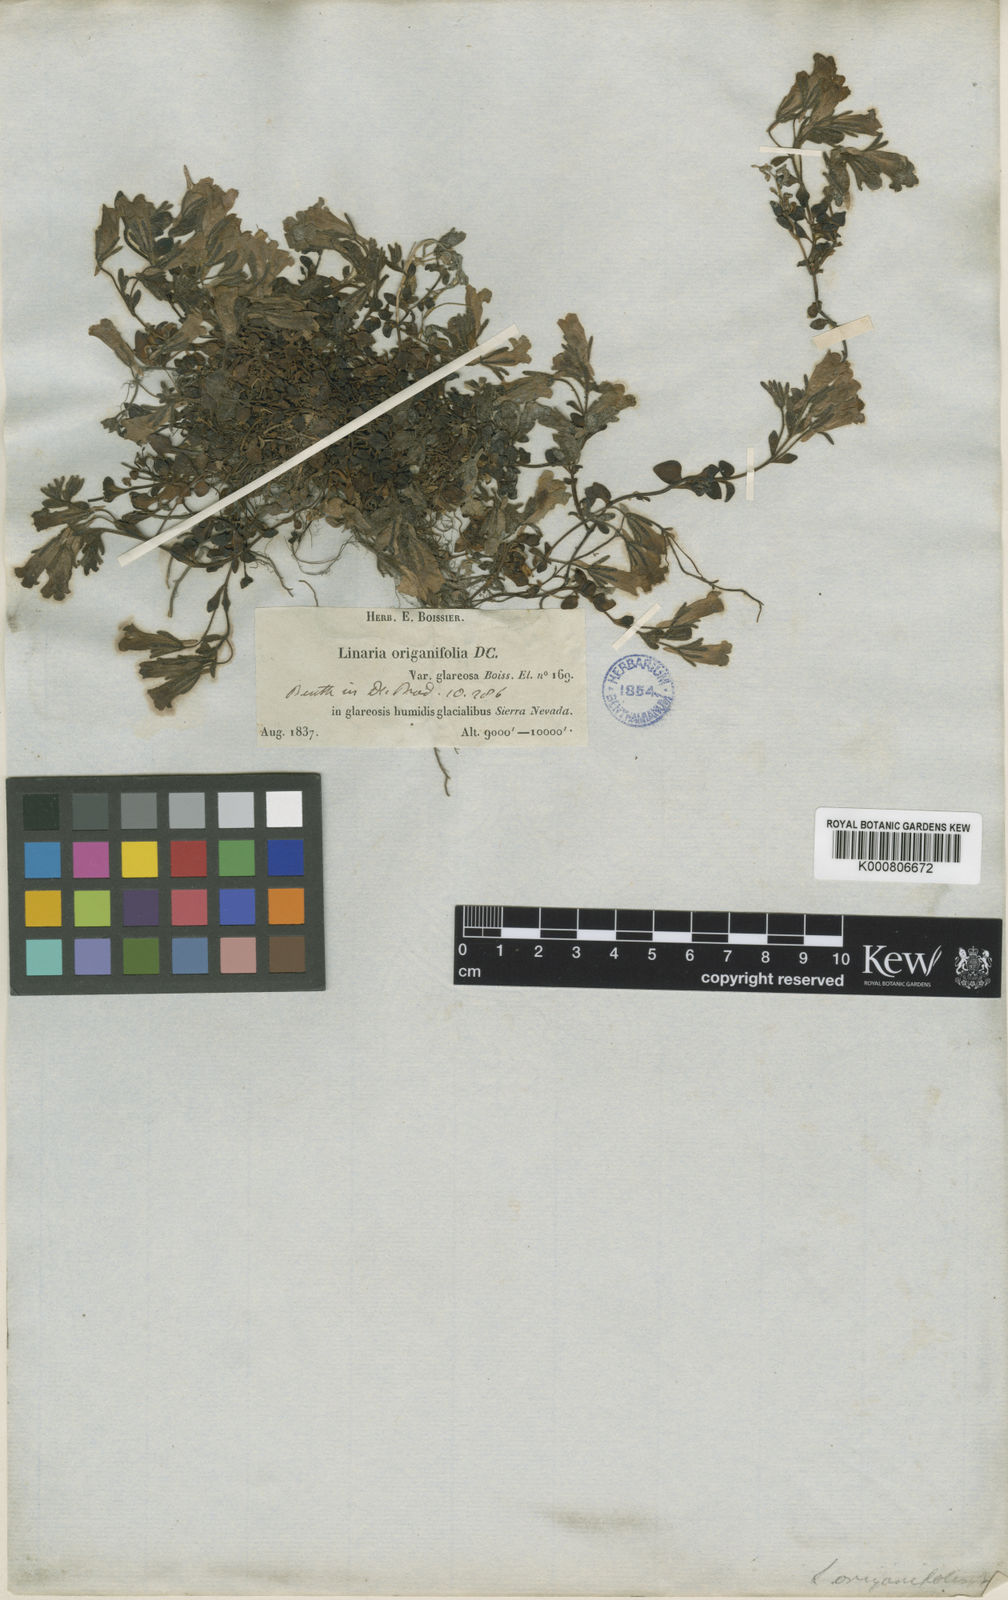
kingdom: Plantae
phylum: Tracheophyta
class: Magnoliopsida
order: Lamiales
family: Plantaginaceae
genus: Chaenorhinum
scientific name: Chaenorhinum
